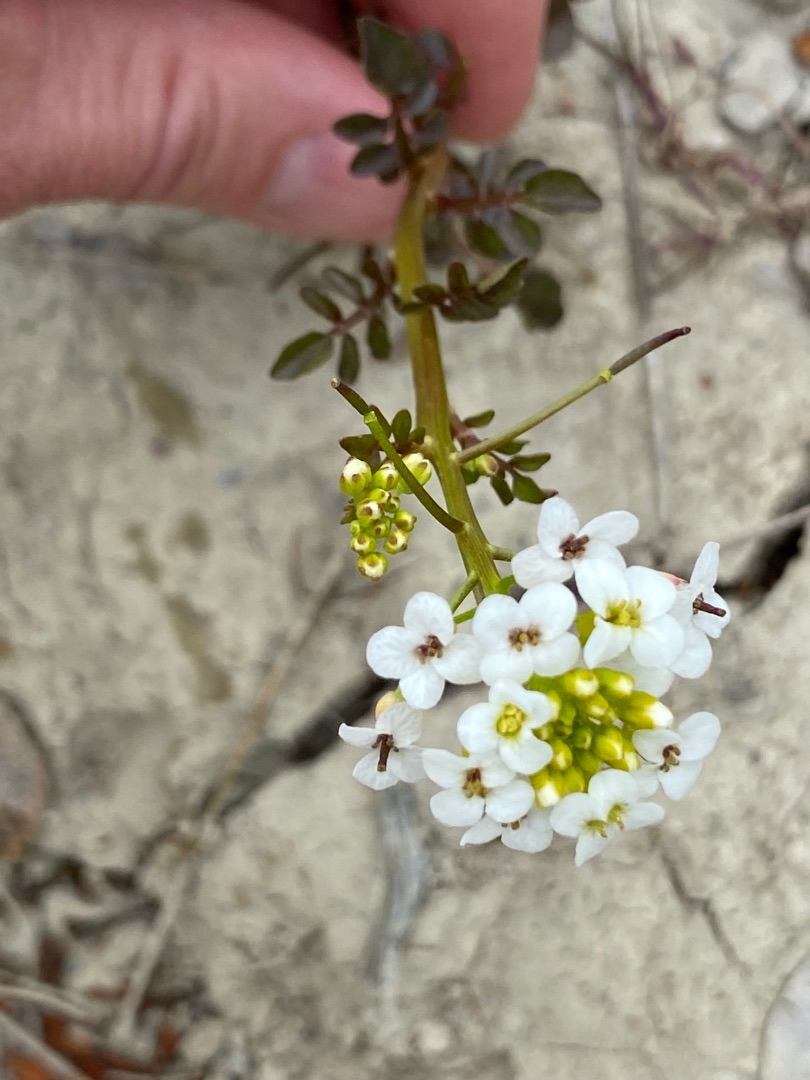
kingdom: Plantae
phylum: Tracheophyta
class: Magnoliopsida
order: Brassicales
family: Brassicaceae
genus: Nasturtium
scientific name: Nasturtium microphyllum
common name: Tyndskulpet brøndkarse
